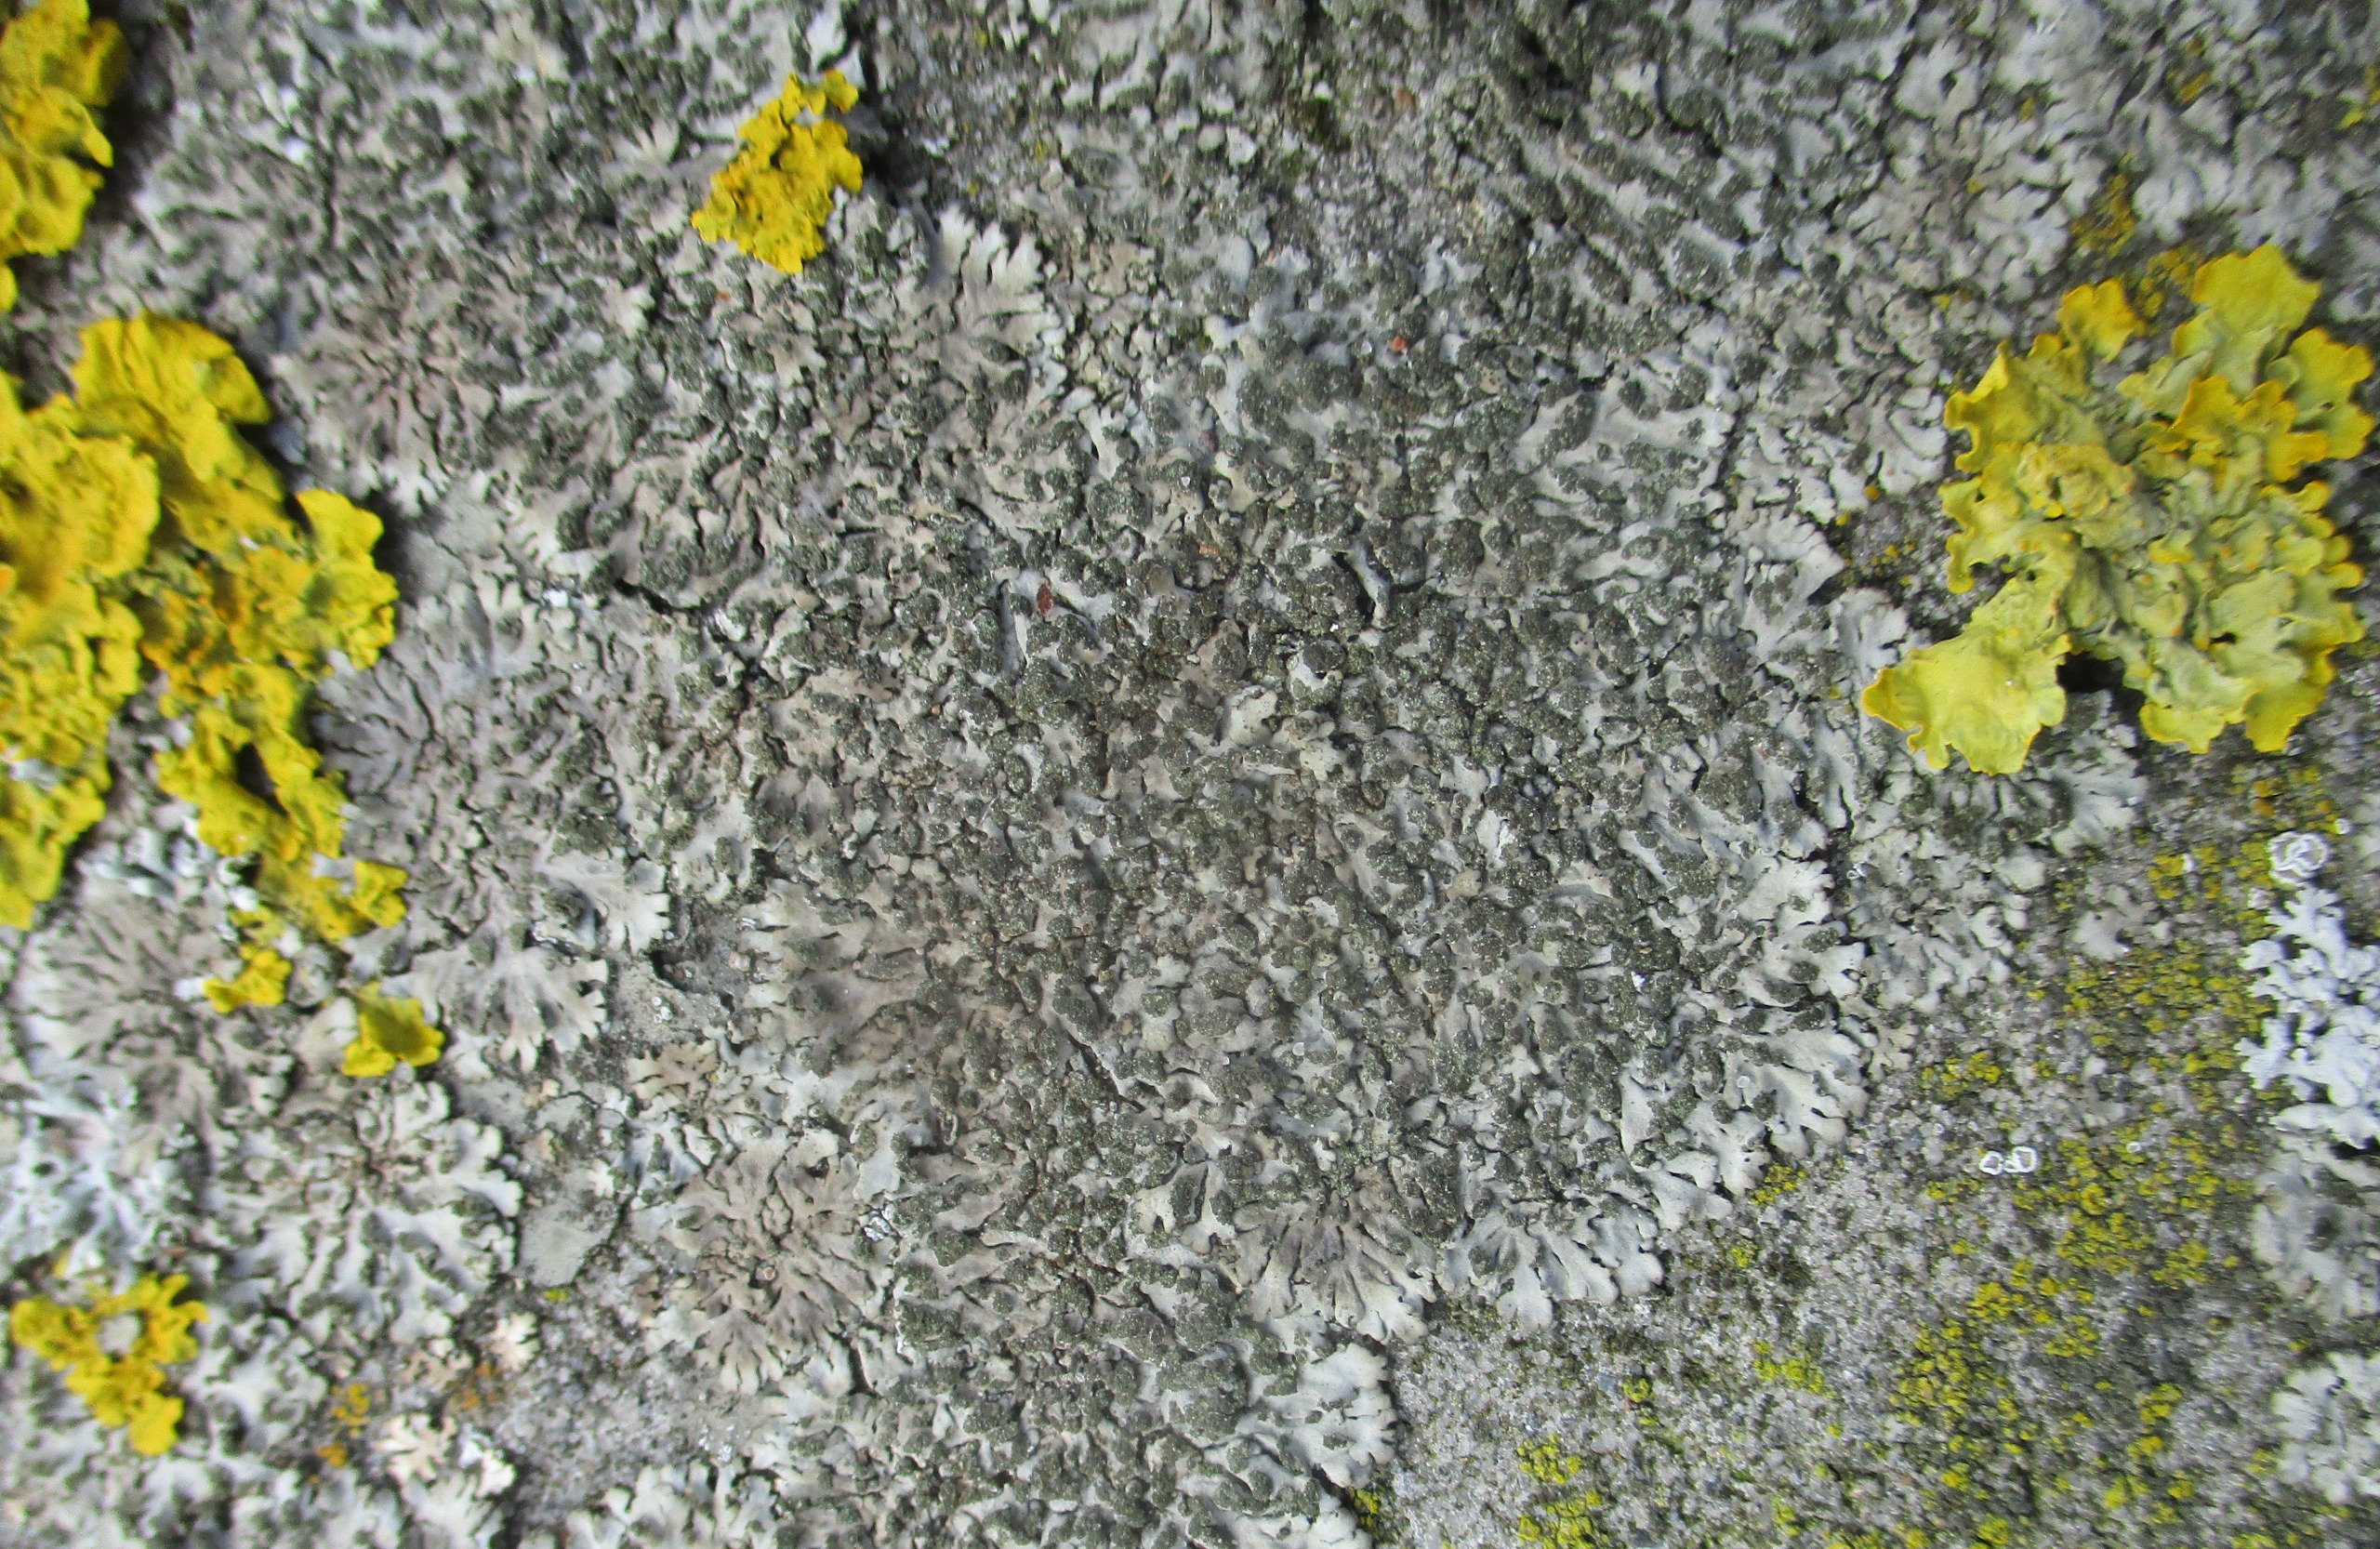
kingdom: Fungi
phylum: Ascomycota
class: Lecanoromycetes
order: Caliciales
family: Physciaceae
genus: Phaeophyscia
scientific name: Phaeophyscia orbicularis
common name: Grågrøn rosetlav
